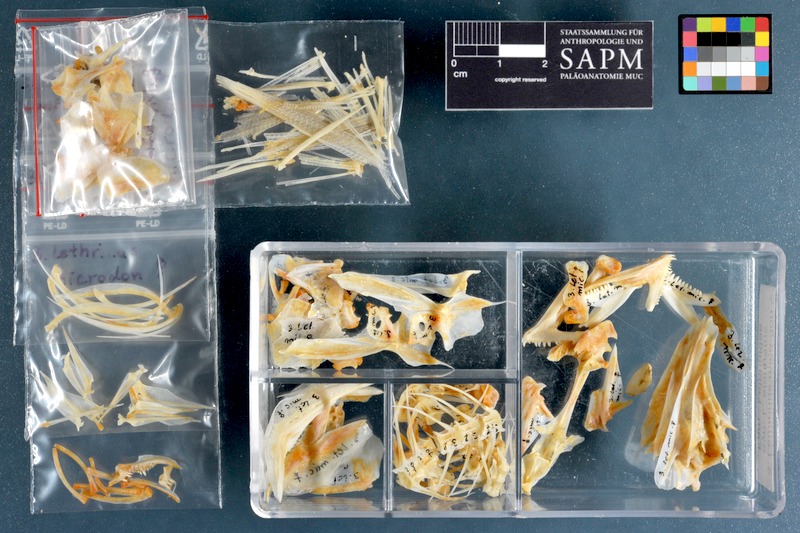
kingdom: Animalia
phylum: Chordata
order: Perciformes
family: Lethrinidae
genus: Lethrinus
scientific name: Lethrinus microdon
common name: Smalltooth emperor
